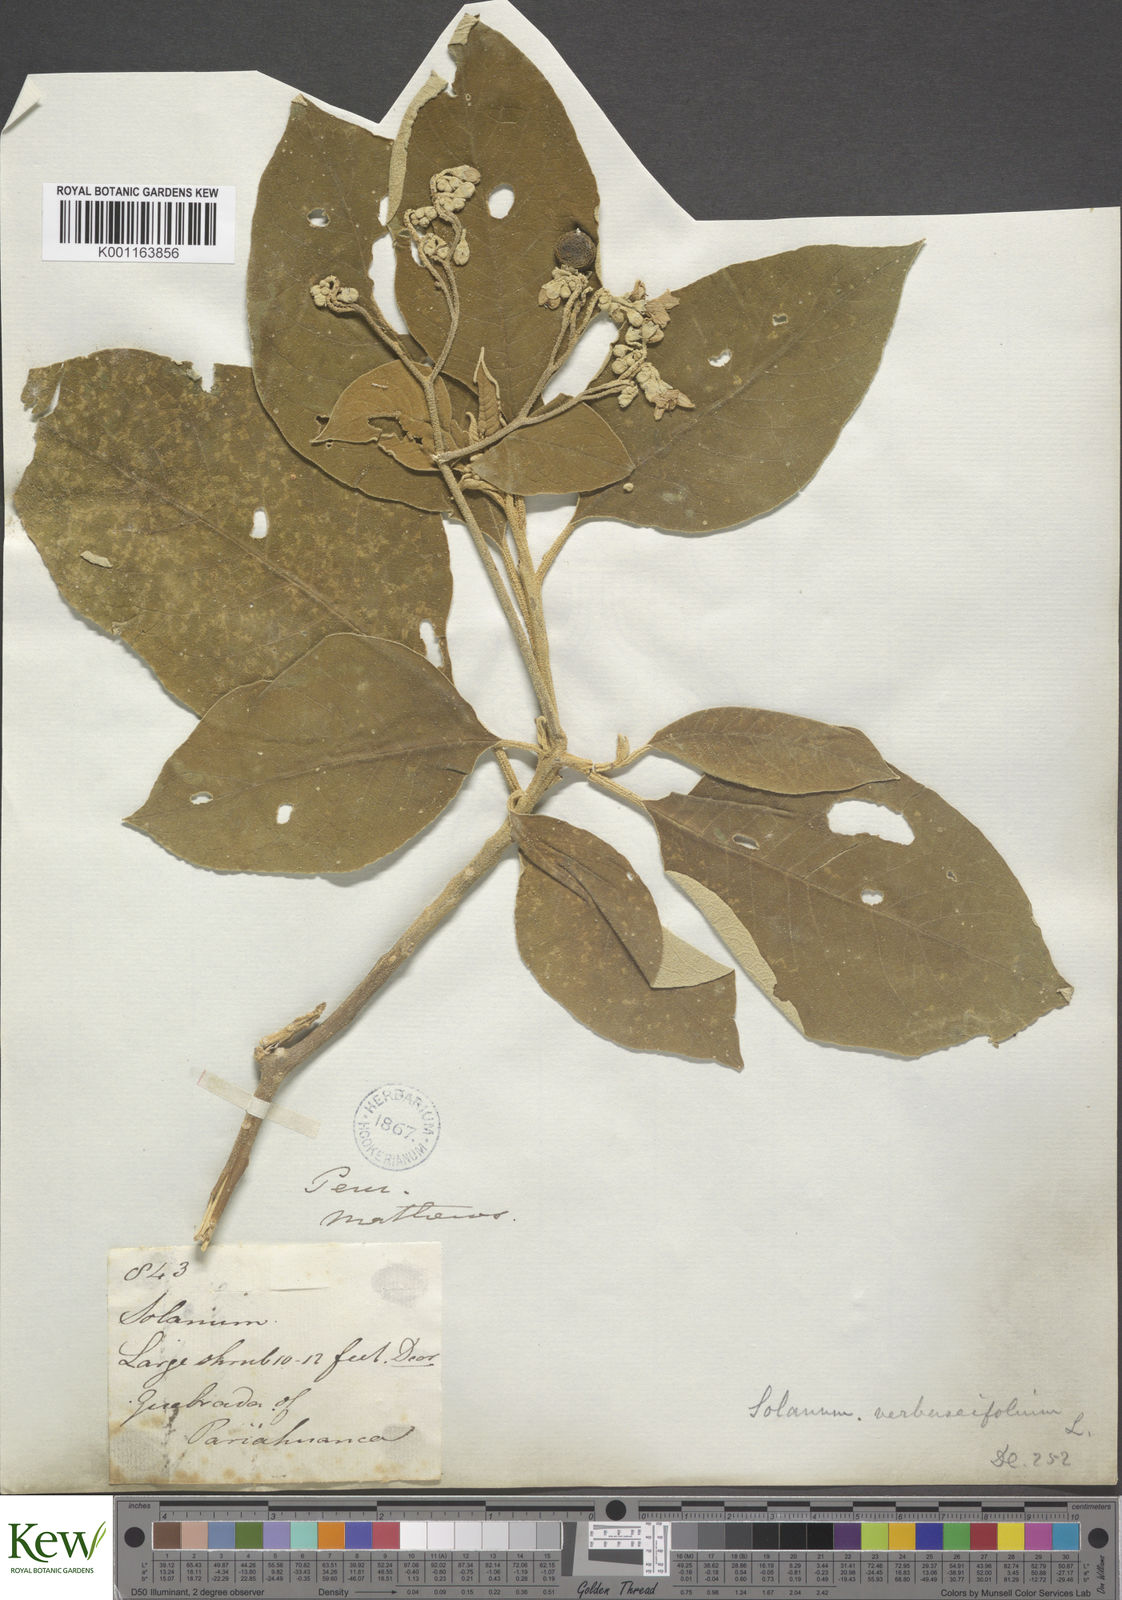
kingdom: Plantae
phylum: Tracheophyta
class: Magnoliopsida
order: Solanales
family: Solanaceae
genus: Solanum
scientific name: Solanum erianthum
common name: Tobacco-tree
